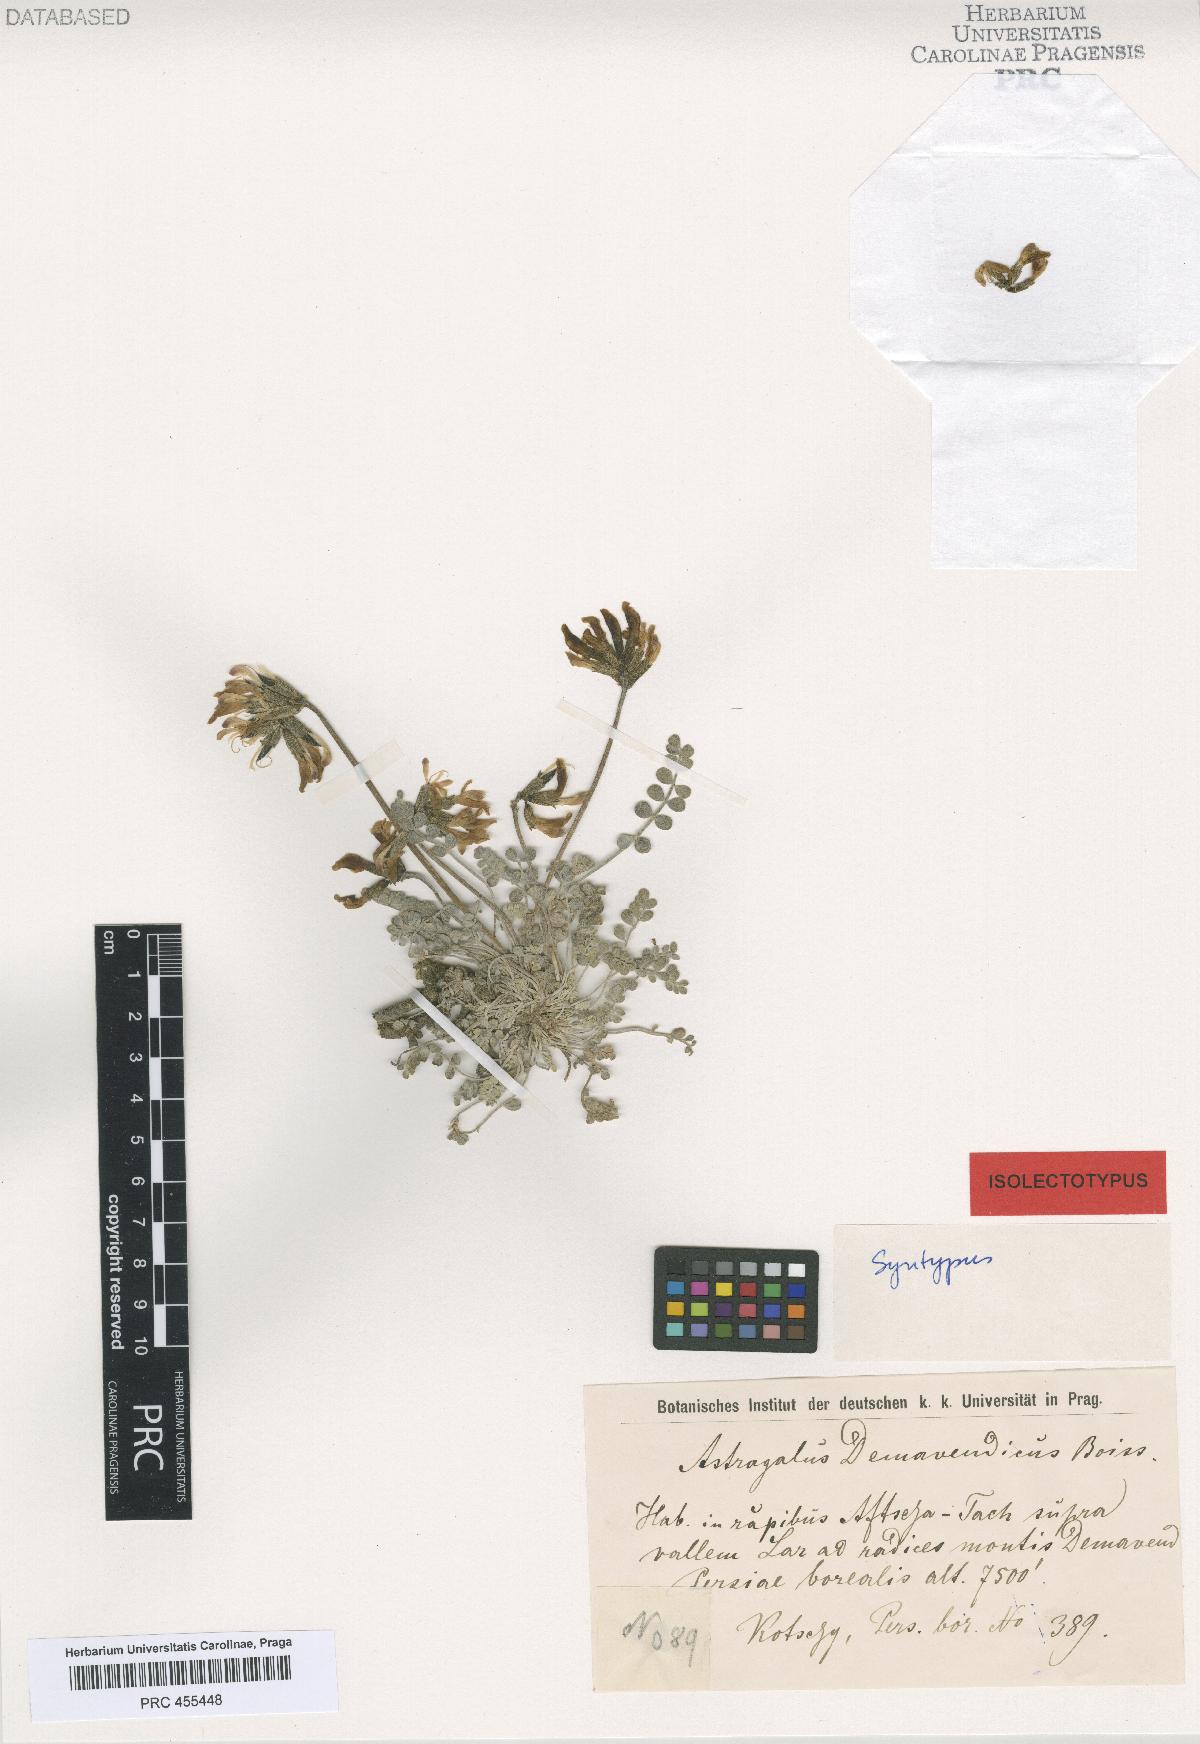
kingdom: Plantae
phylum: Tracheophyta
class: Magnoliopsida
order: Fabales
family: Fabaceae
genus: Astragalus
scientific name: Astragalus demavendicus
